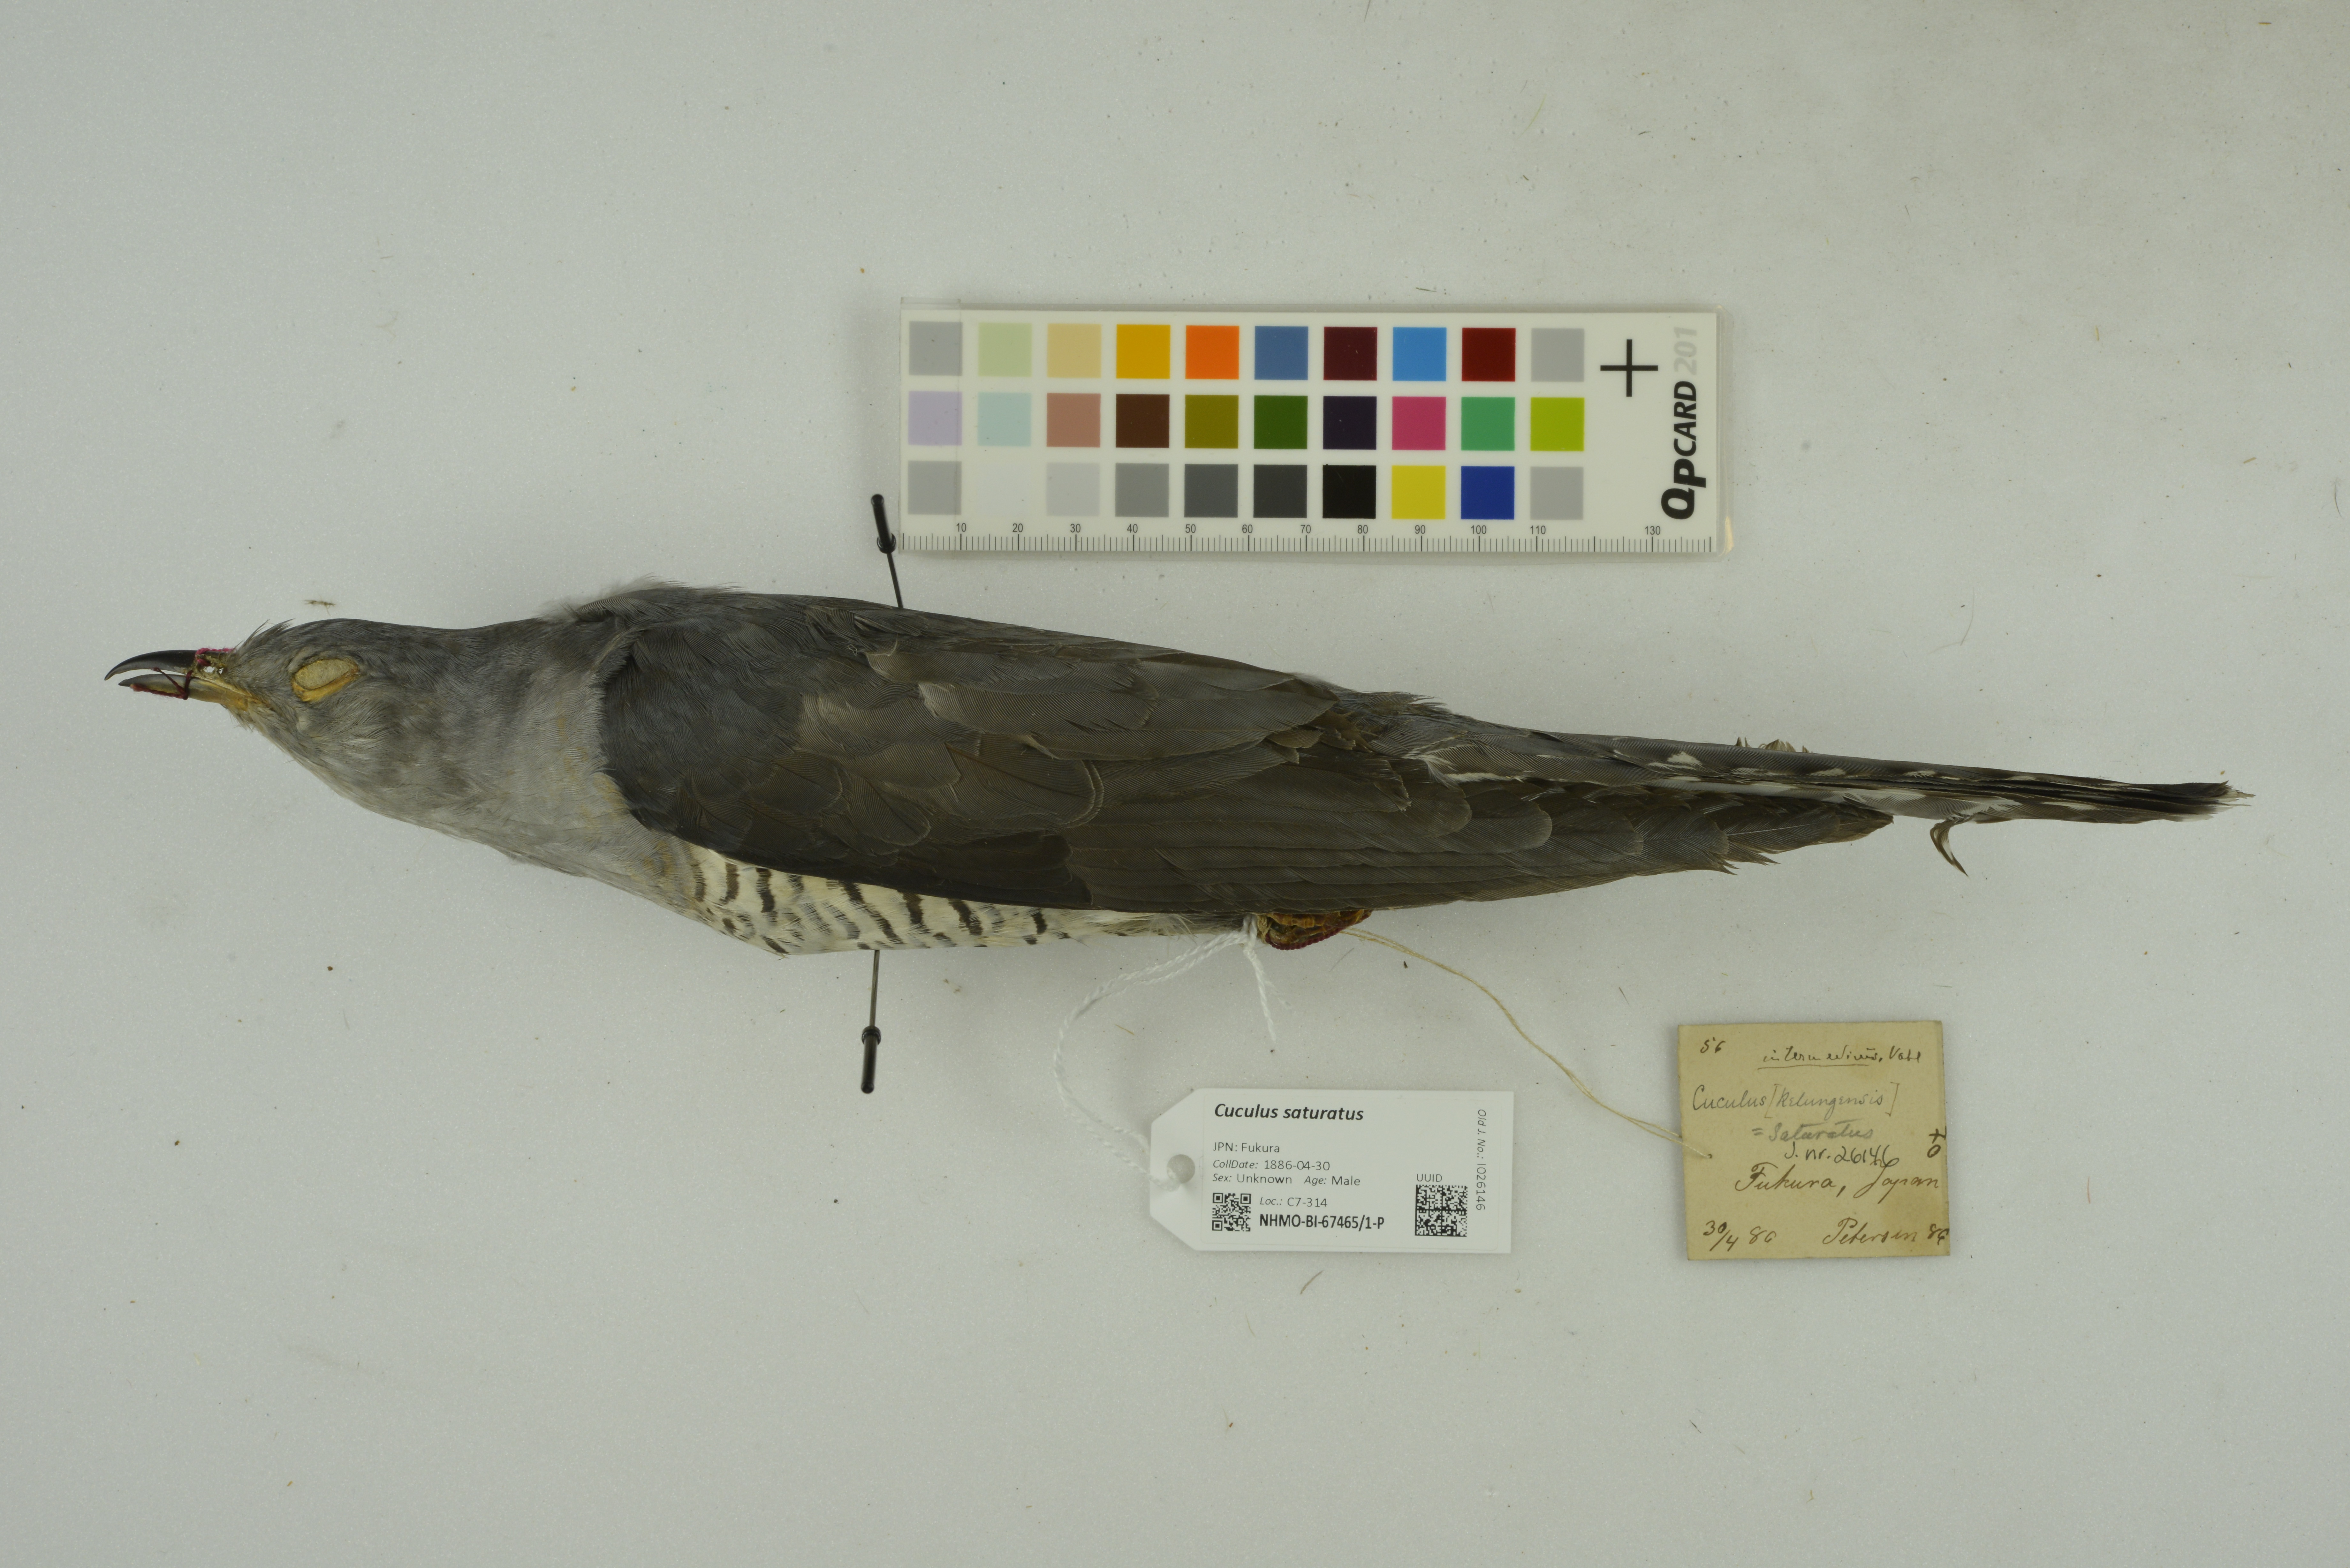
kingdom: Animalia
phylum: Chordata
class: Aves
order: Cuculiformes
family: Cuculidae
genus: Cuculus
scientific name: Cuculus saturatus
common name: Himalayan cuckoo
